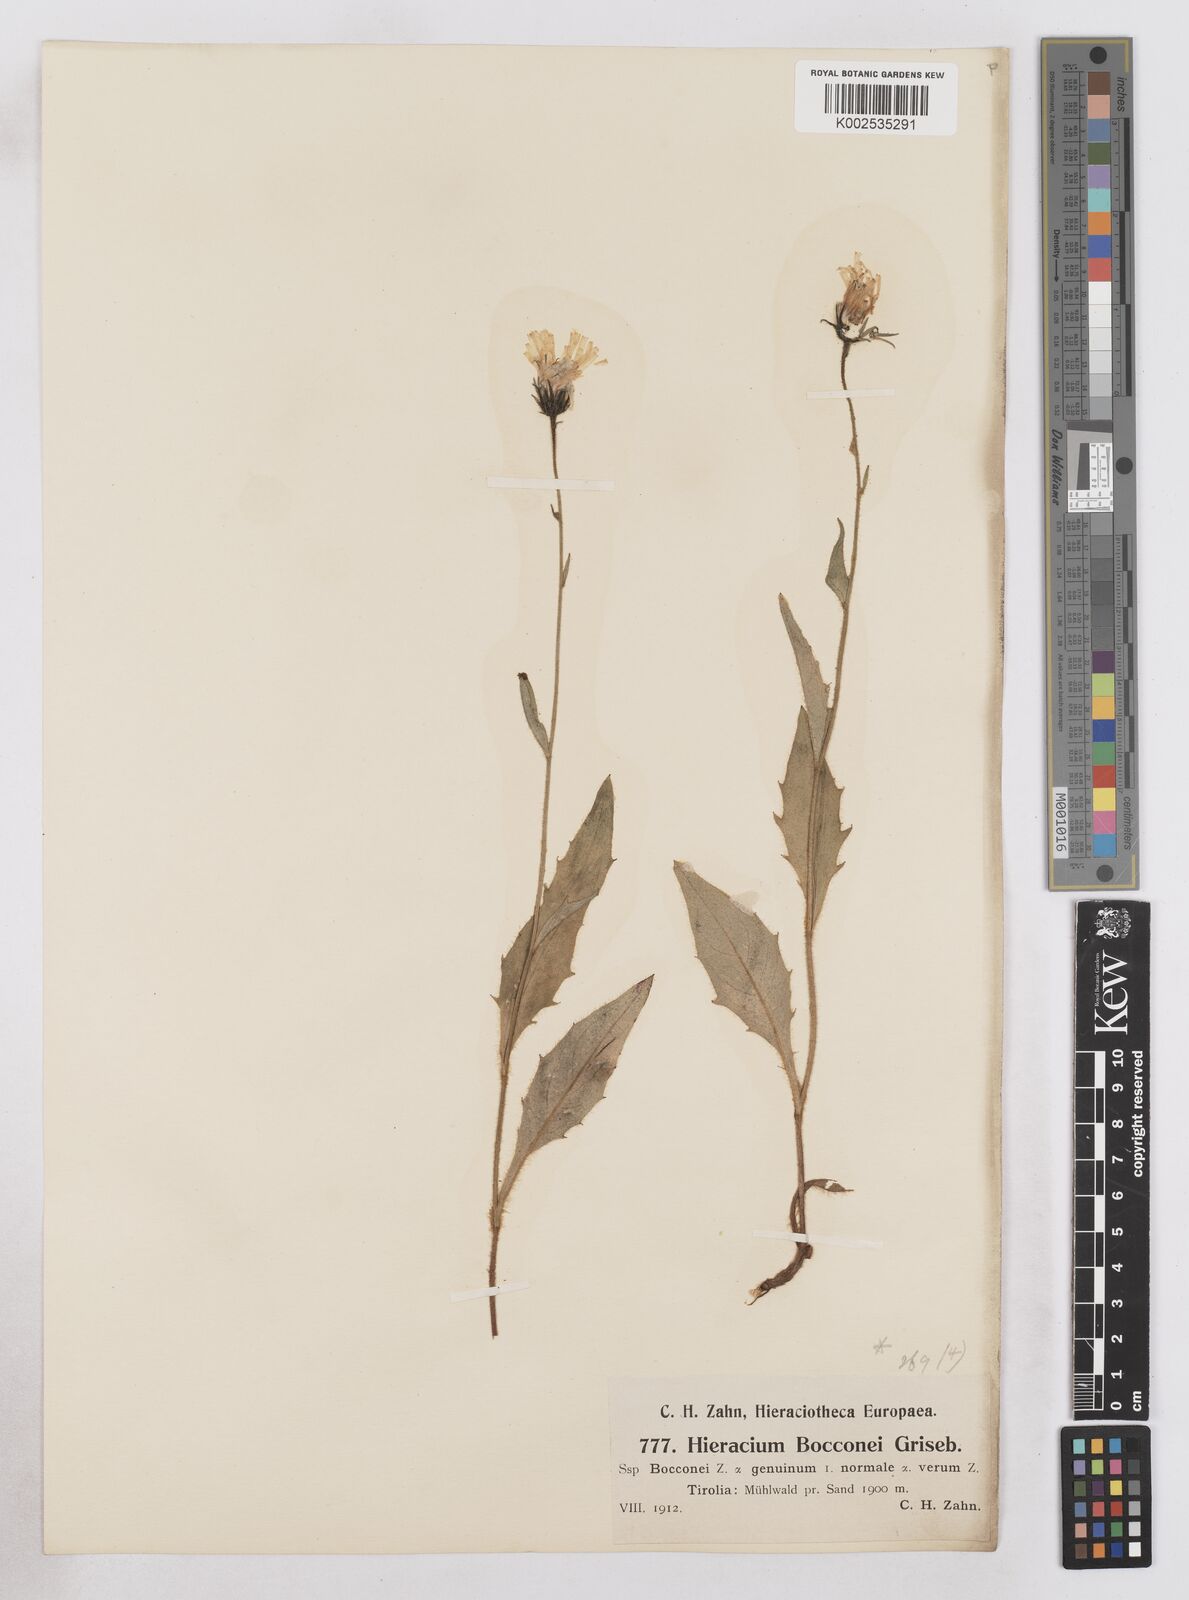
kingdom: Plantae
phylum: Tracheophyta
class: Magnoliopsida
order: Asterales
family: Asteraceae
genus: Hieracium
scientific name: Hieracium bocconei
